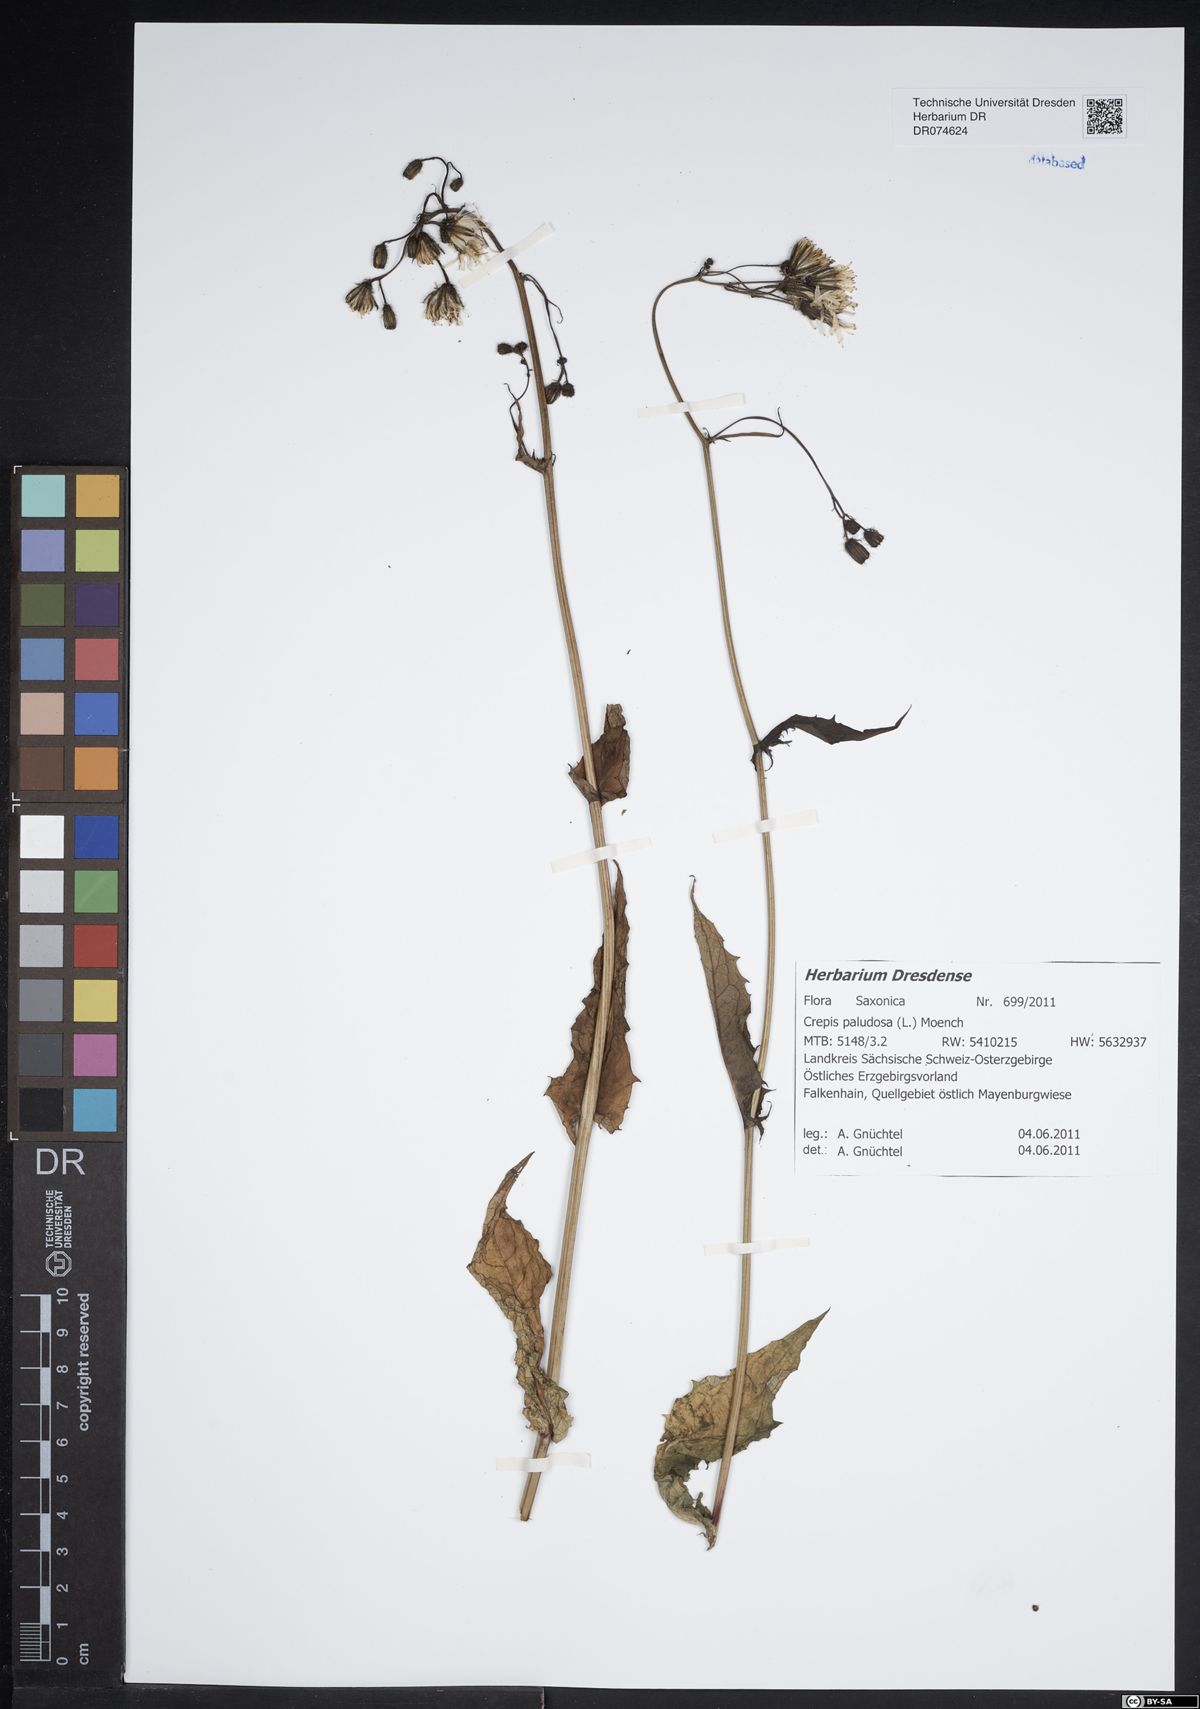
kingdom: Plantae
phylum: Tracheophyta
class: Magnoliopsida
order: Asterales
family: Asteraceae
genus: Crepis
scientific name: Crepis paludosa
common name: Marsh hawk's-beard
